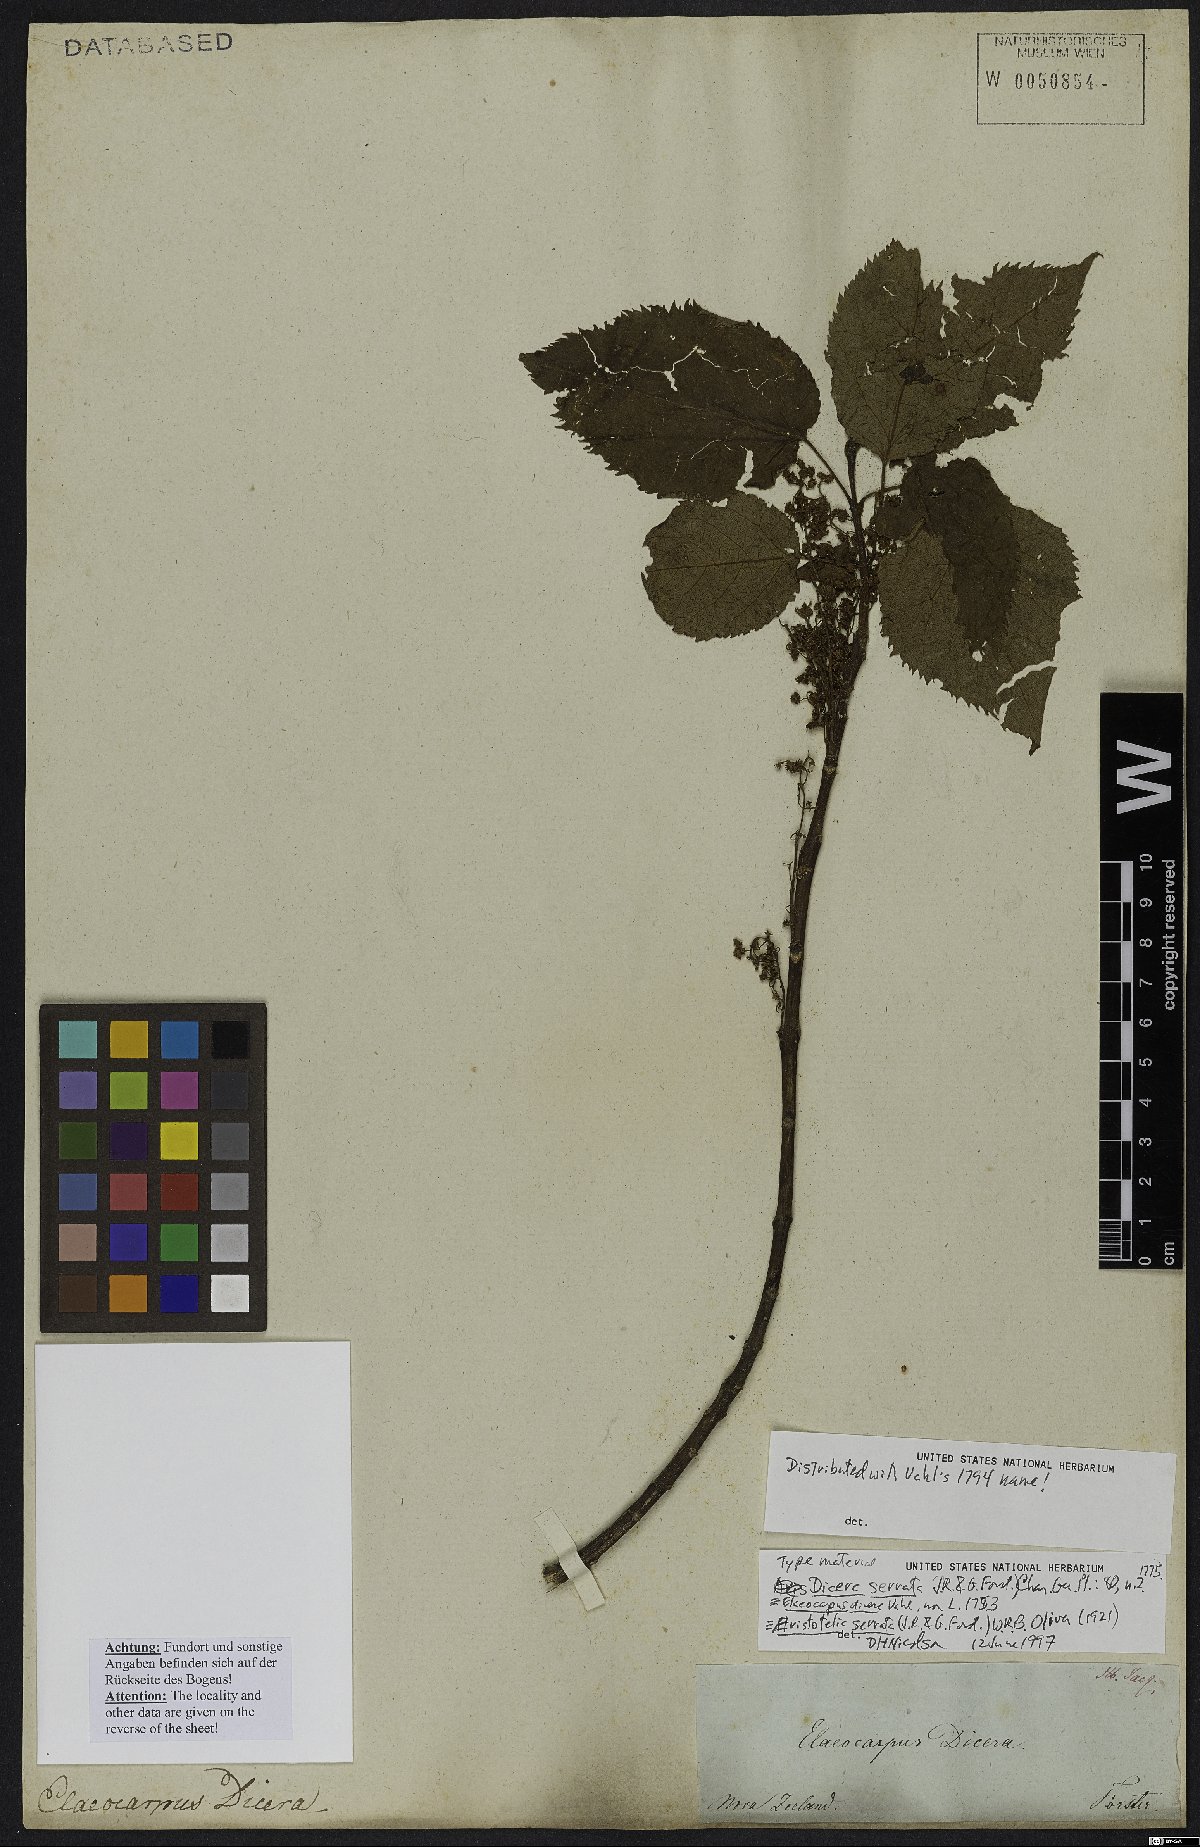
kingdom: Plantae
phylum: Tracheophyta
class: Magnoliopsida
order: Oxalidales
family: Elaeocarpaceae
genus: Aristotelia
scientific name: Aristotelia serrata
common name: New zealand wineberry
